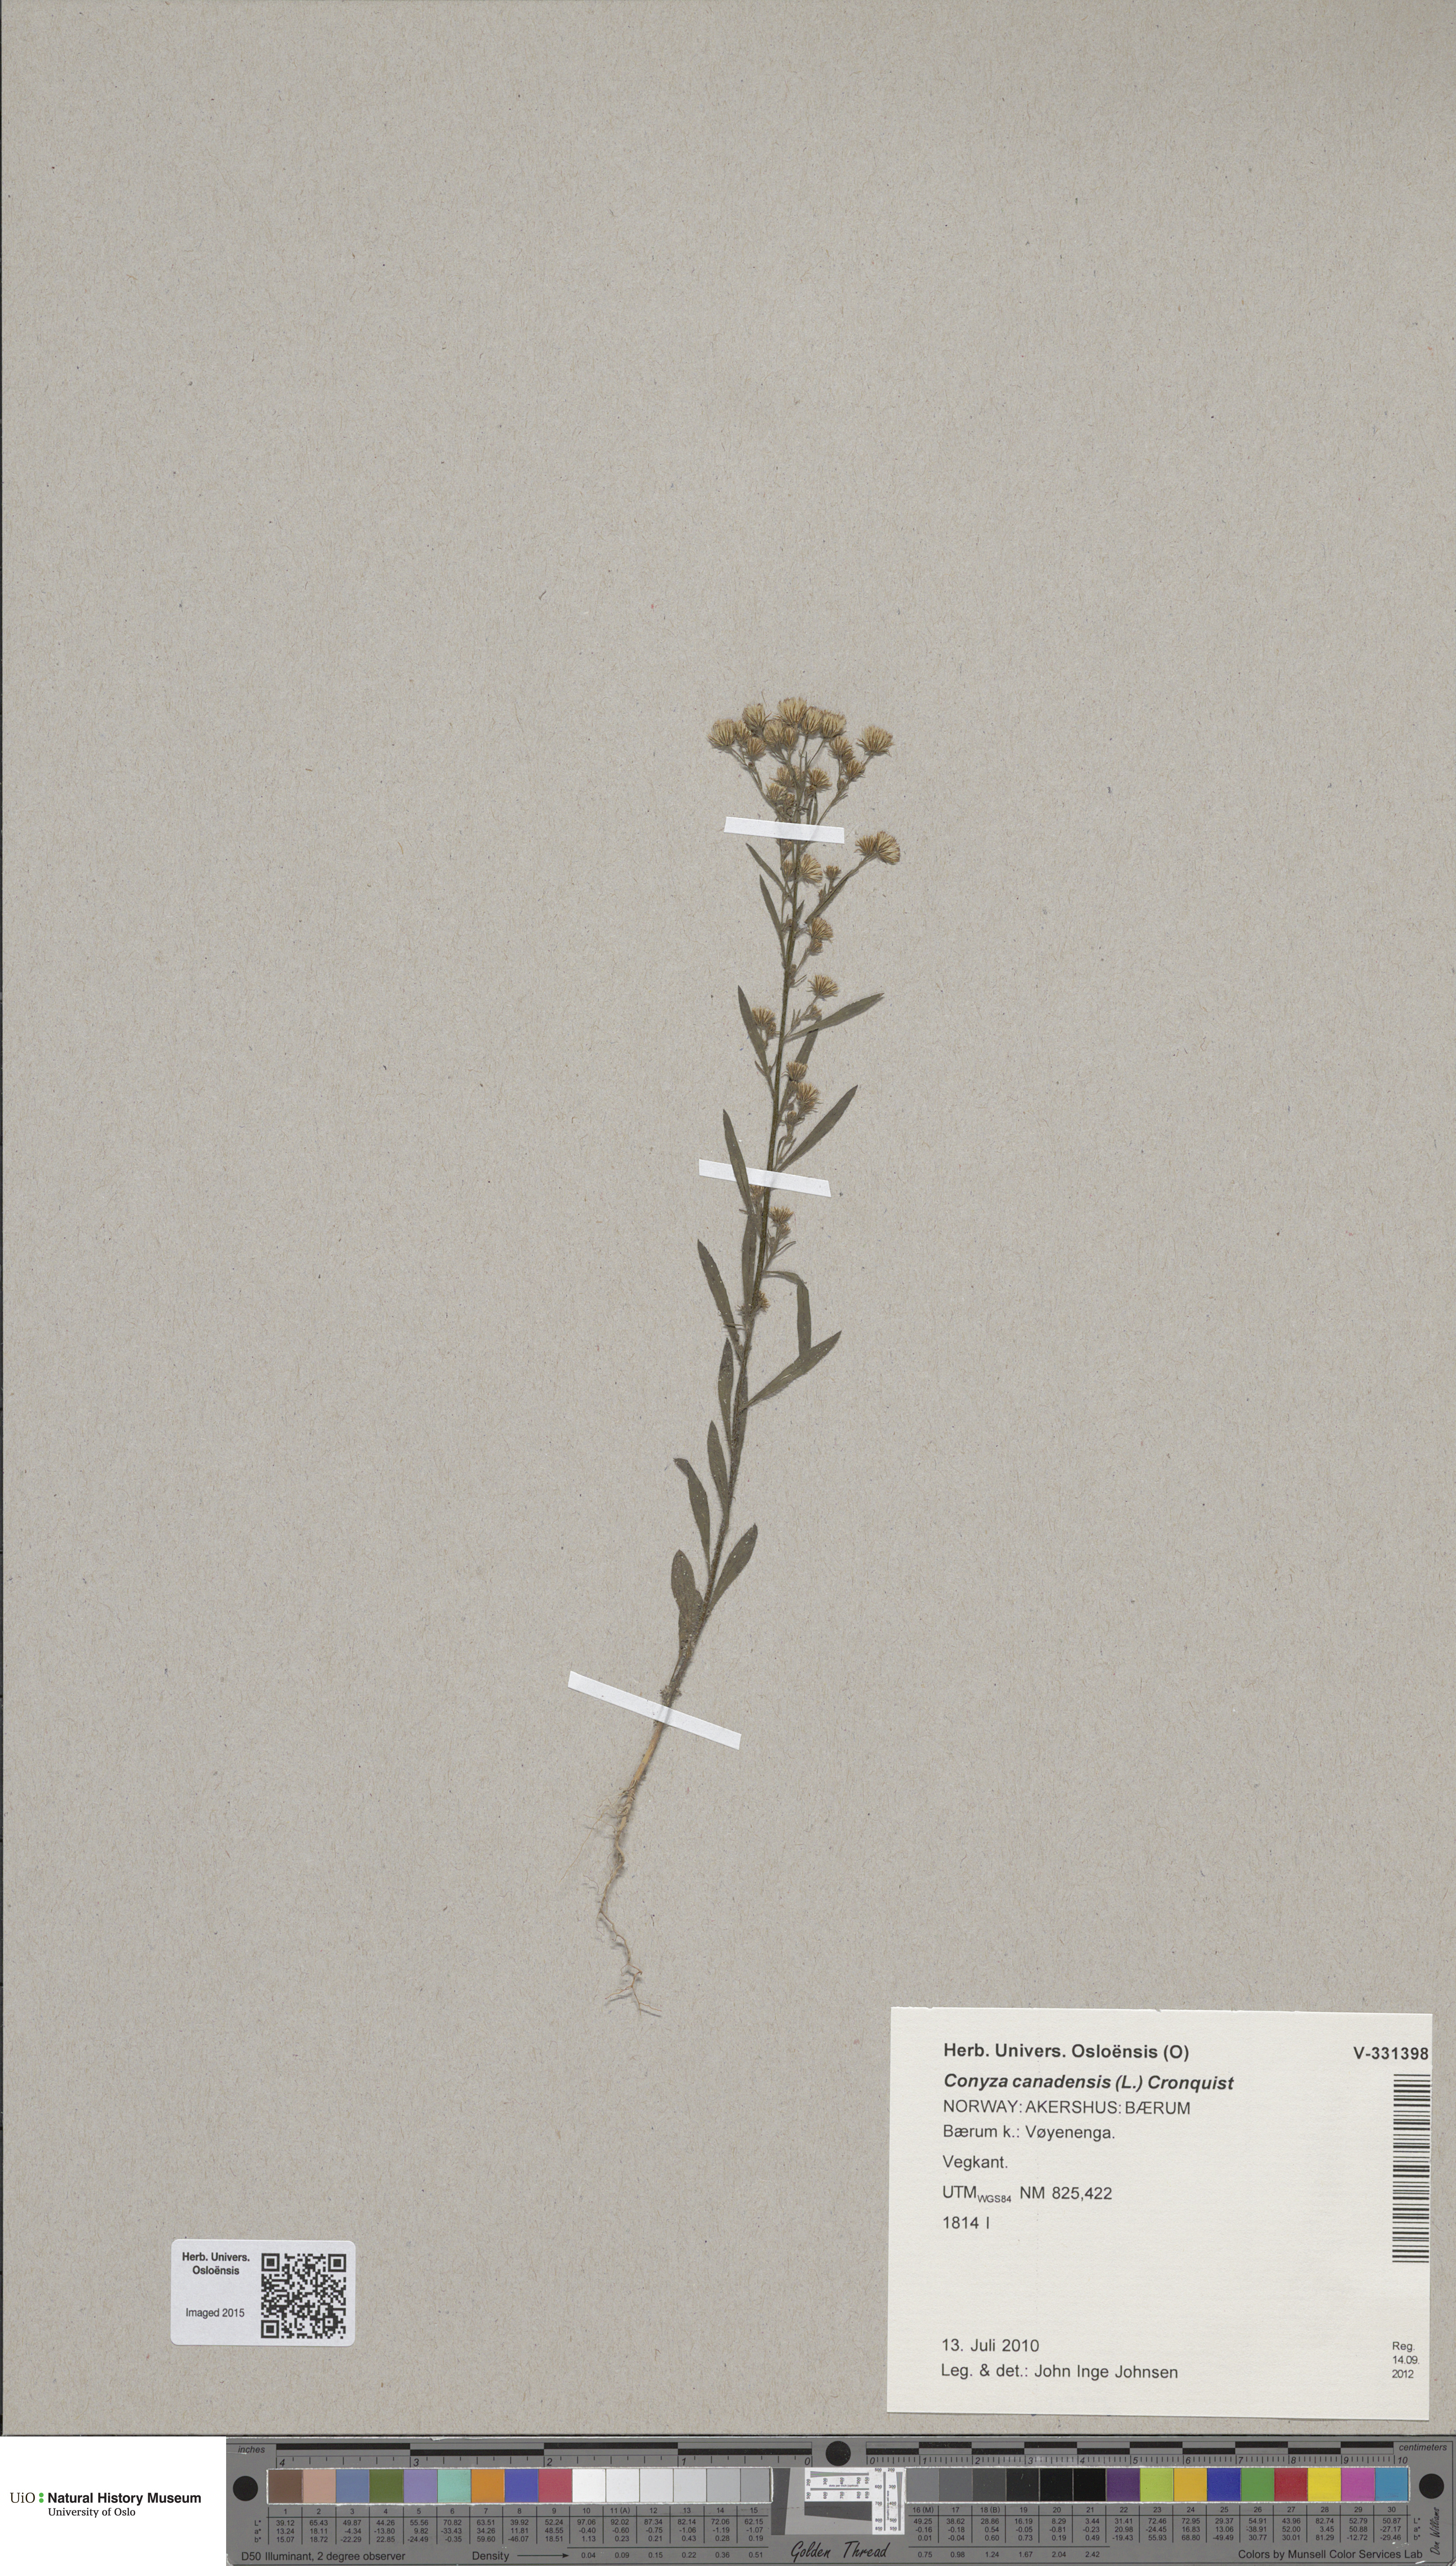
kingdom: Plantae
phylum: Tracheophyta
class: Magnoliopsida
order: Asterales
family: Asteraceae
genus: Erigeron
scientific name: Erigeron canadensis
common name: Canadian fleabane
